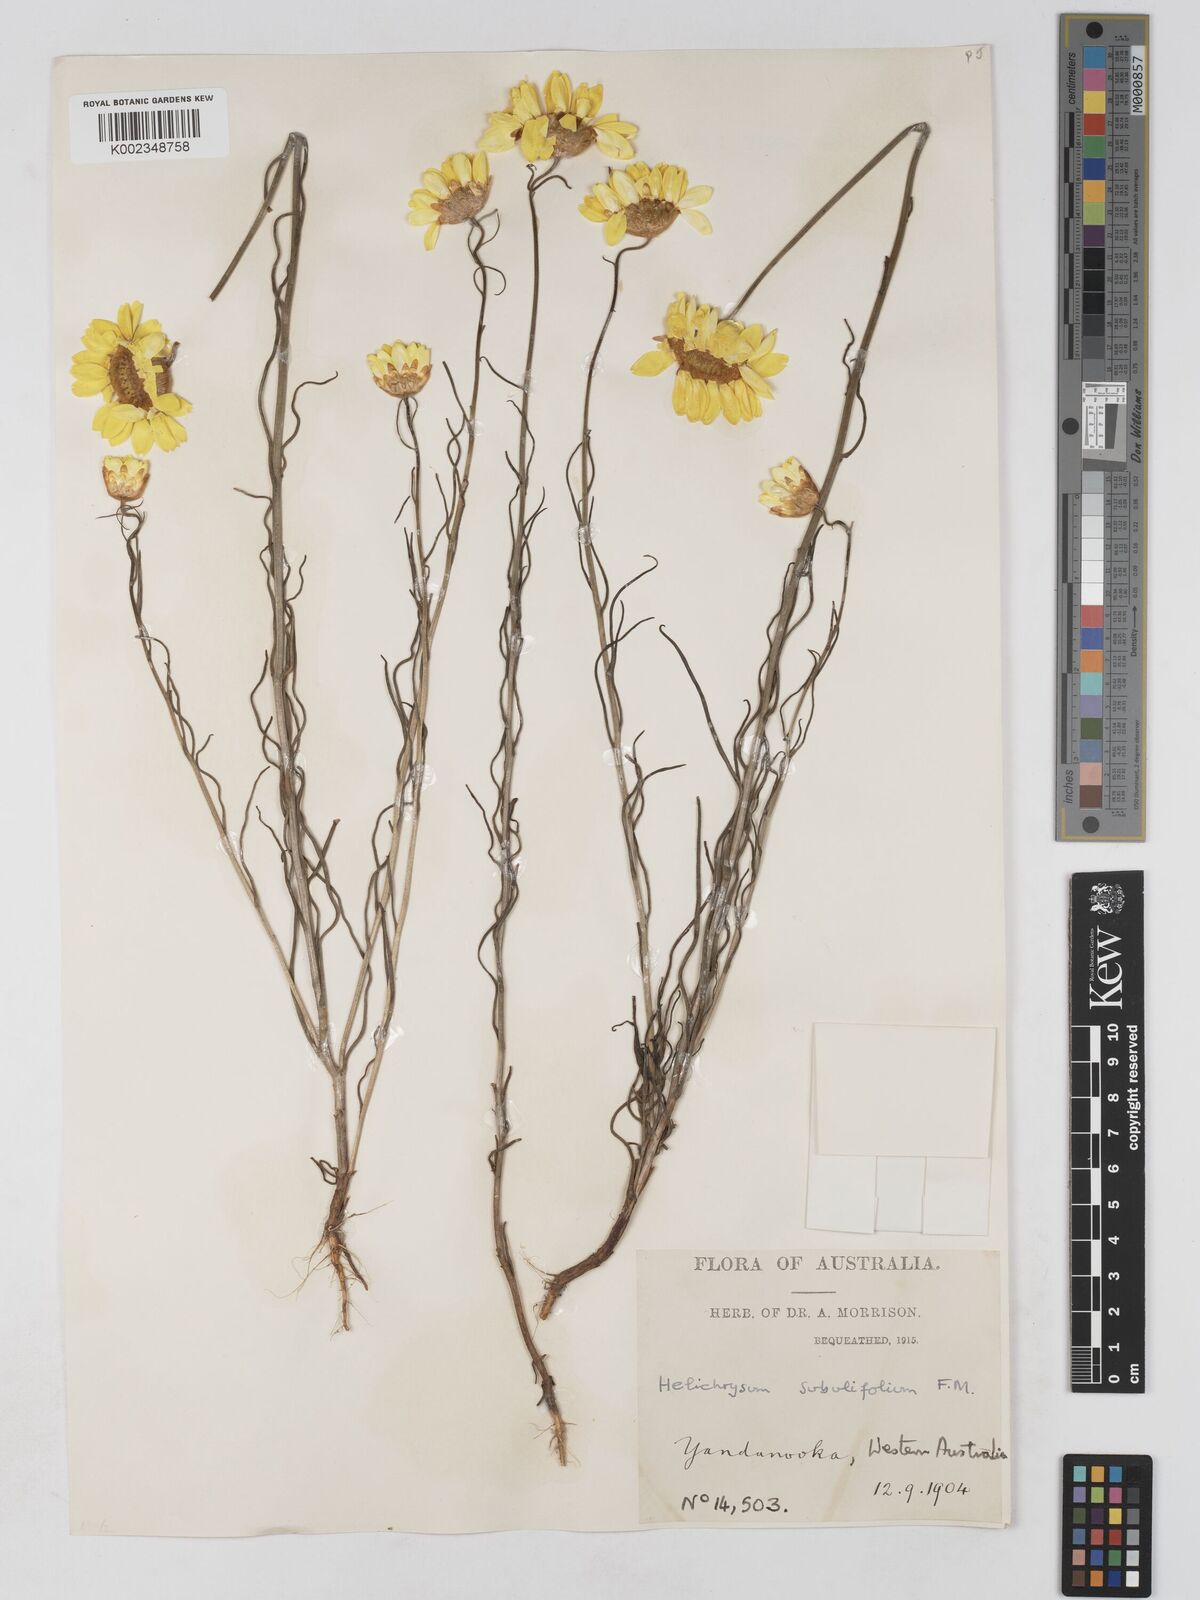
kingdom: Plantae
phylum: Tracheophyta
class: Magnoliopsida
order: Asterales
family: Asteraceae
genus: Schoenia
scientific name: Schoenia filifolia
